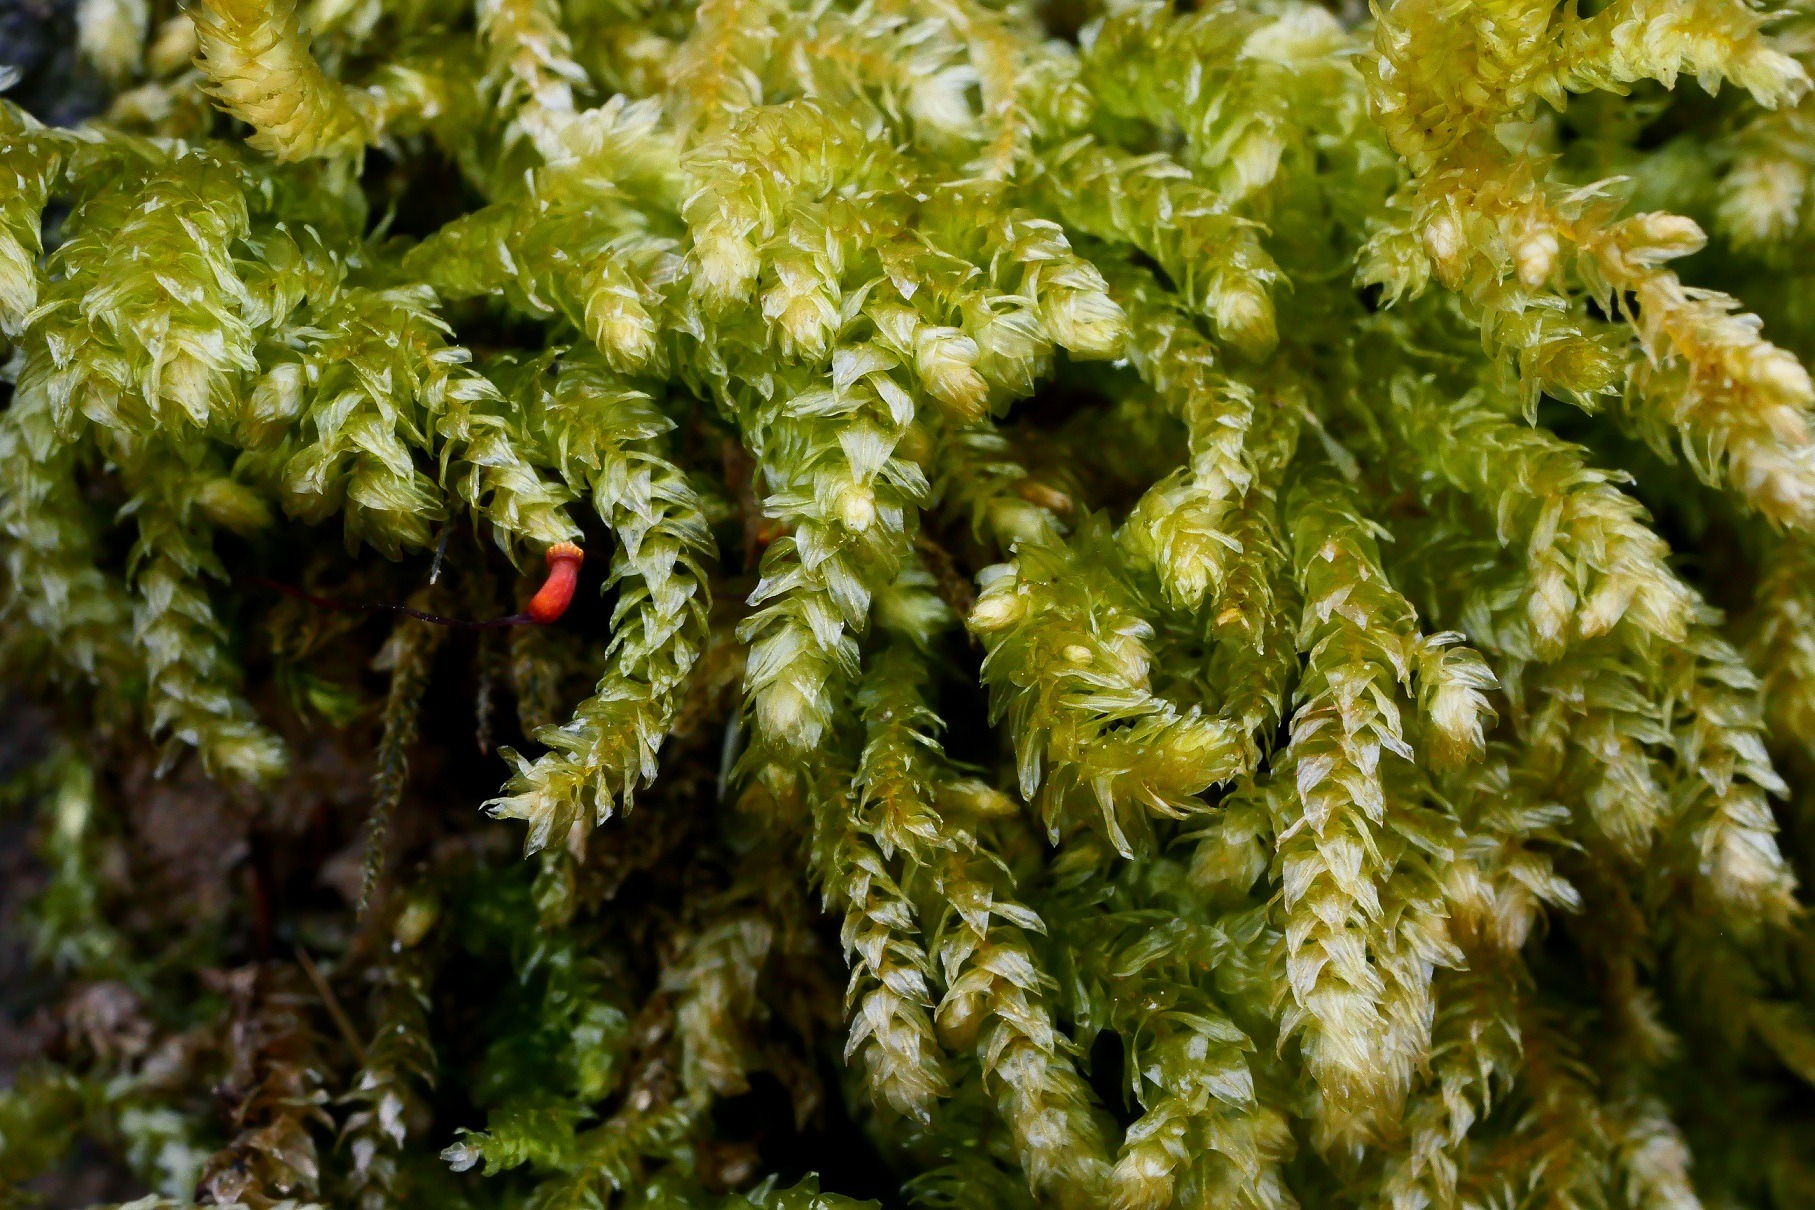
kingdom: Plantae
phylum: Bryophyta
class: Bryopsida
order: Hypnales
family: Brachytheciaceae
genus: Eurhynchium
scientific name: Eurhynchium angustirete
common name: Stor næbmos
